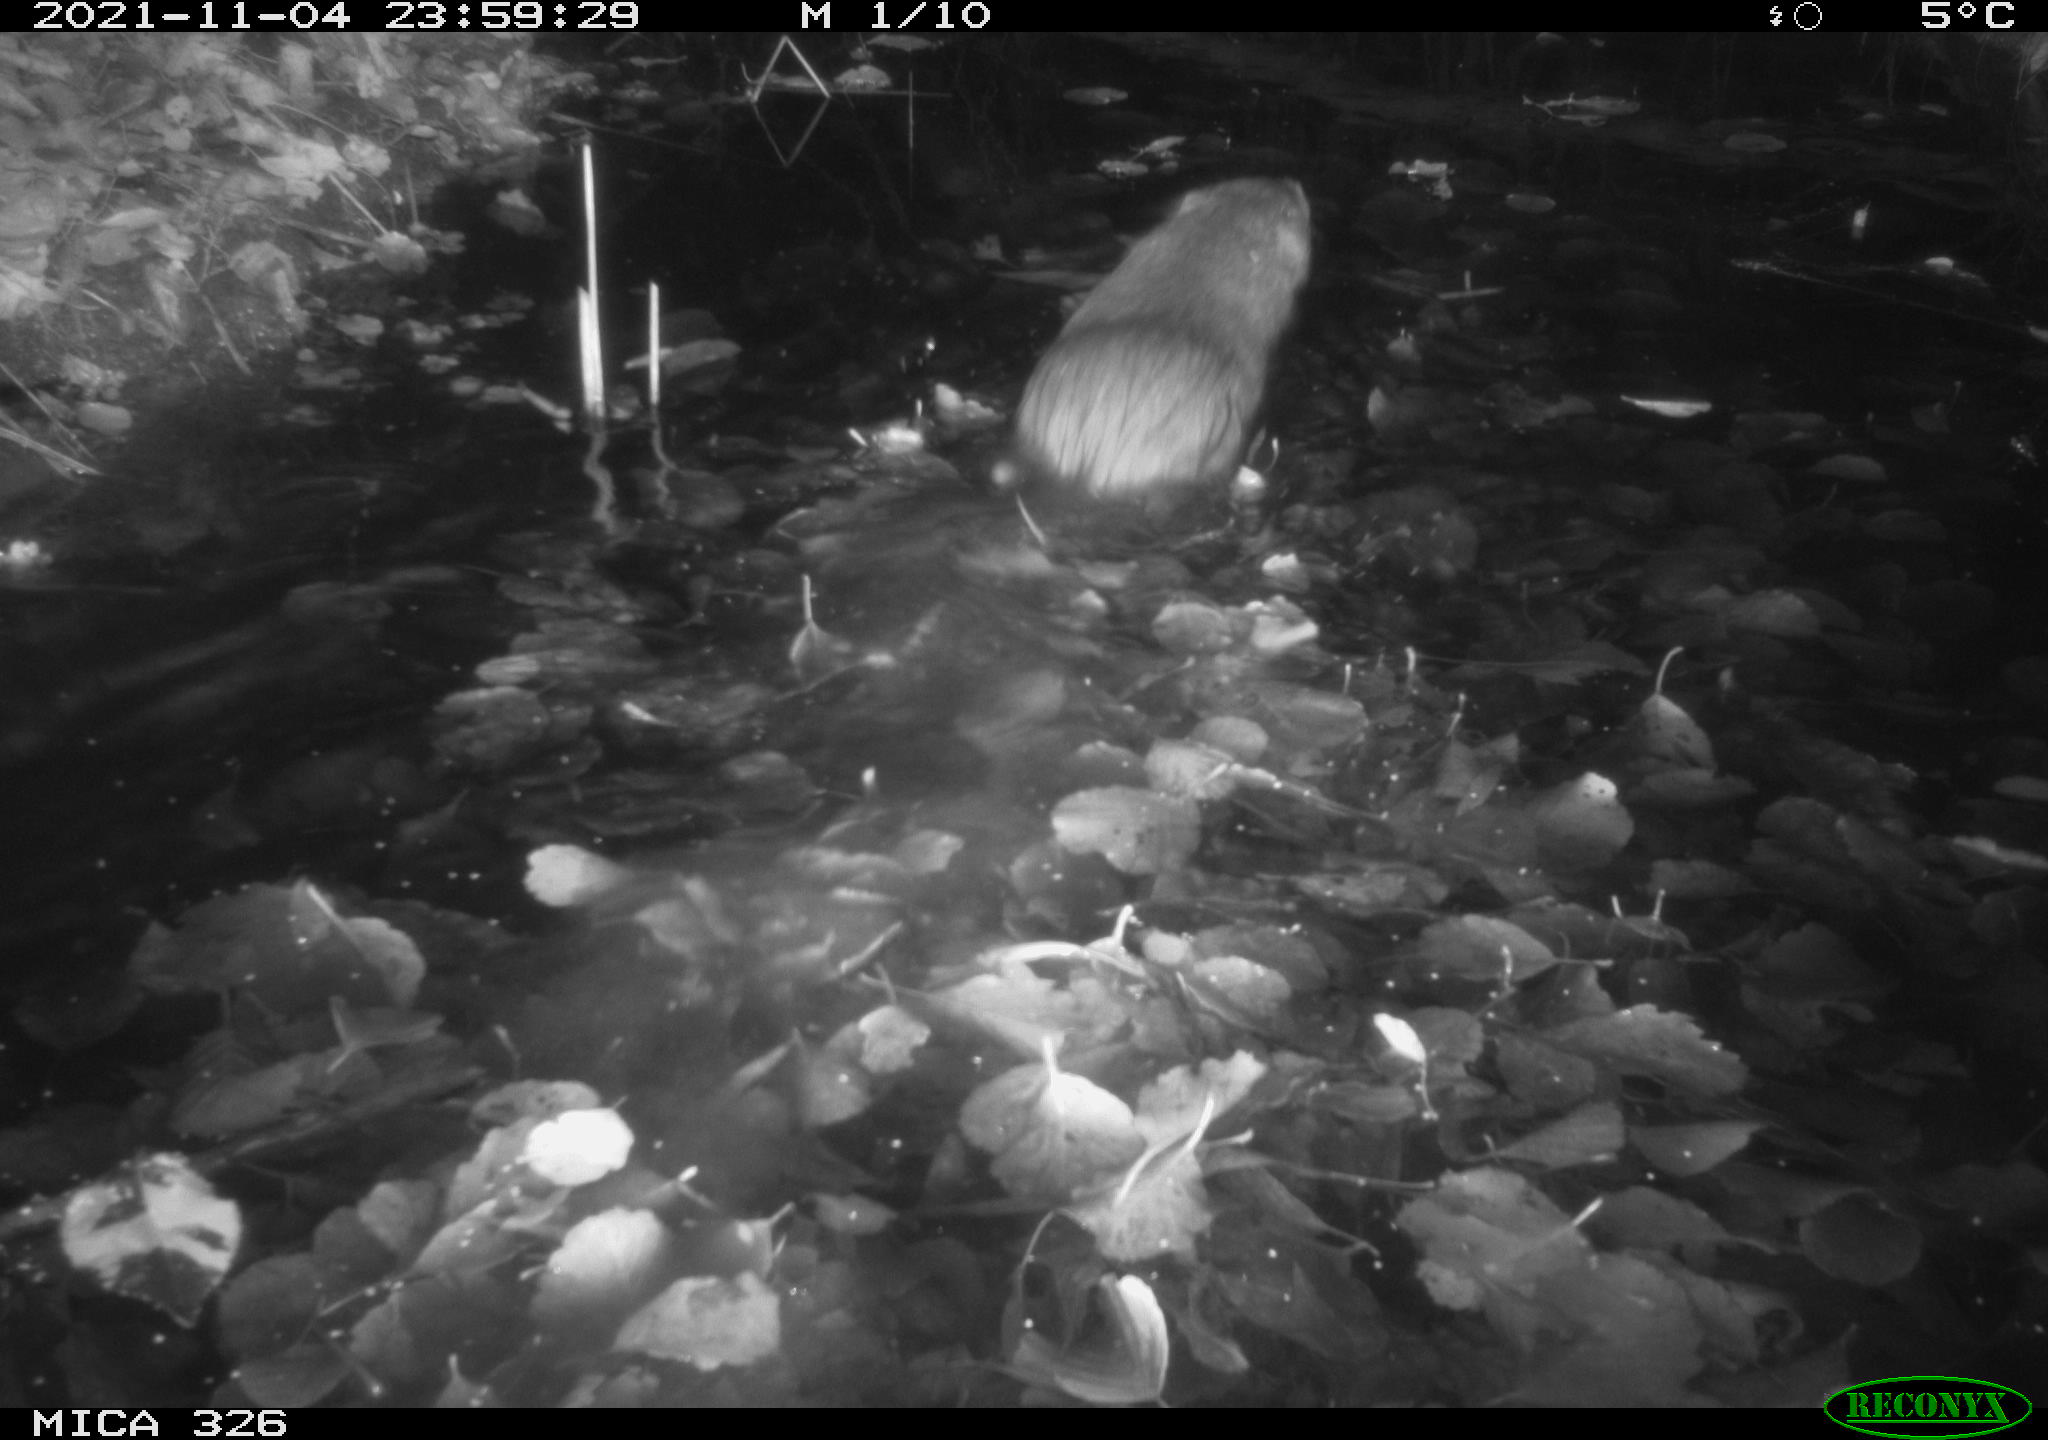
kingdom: Animalia
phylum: Chordata
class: Mammalia
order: Rodentia
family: Myocastoridae
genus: Myocastor
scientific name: Myocastor coypus
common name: Coypu
